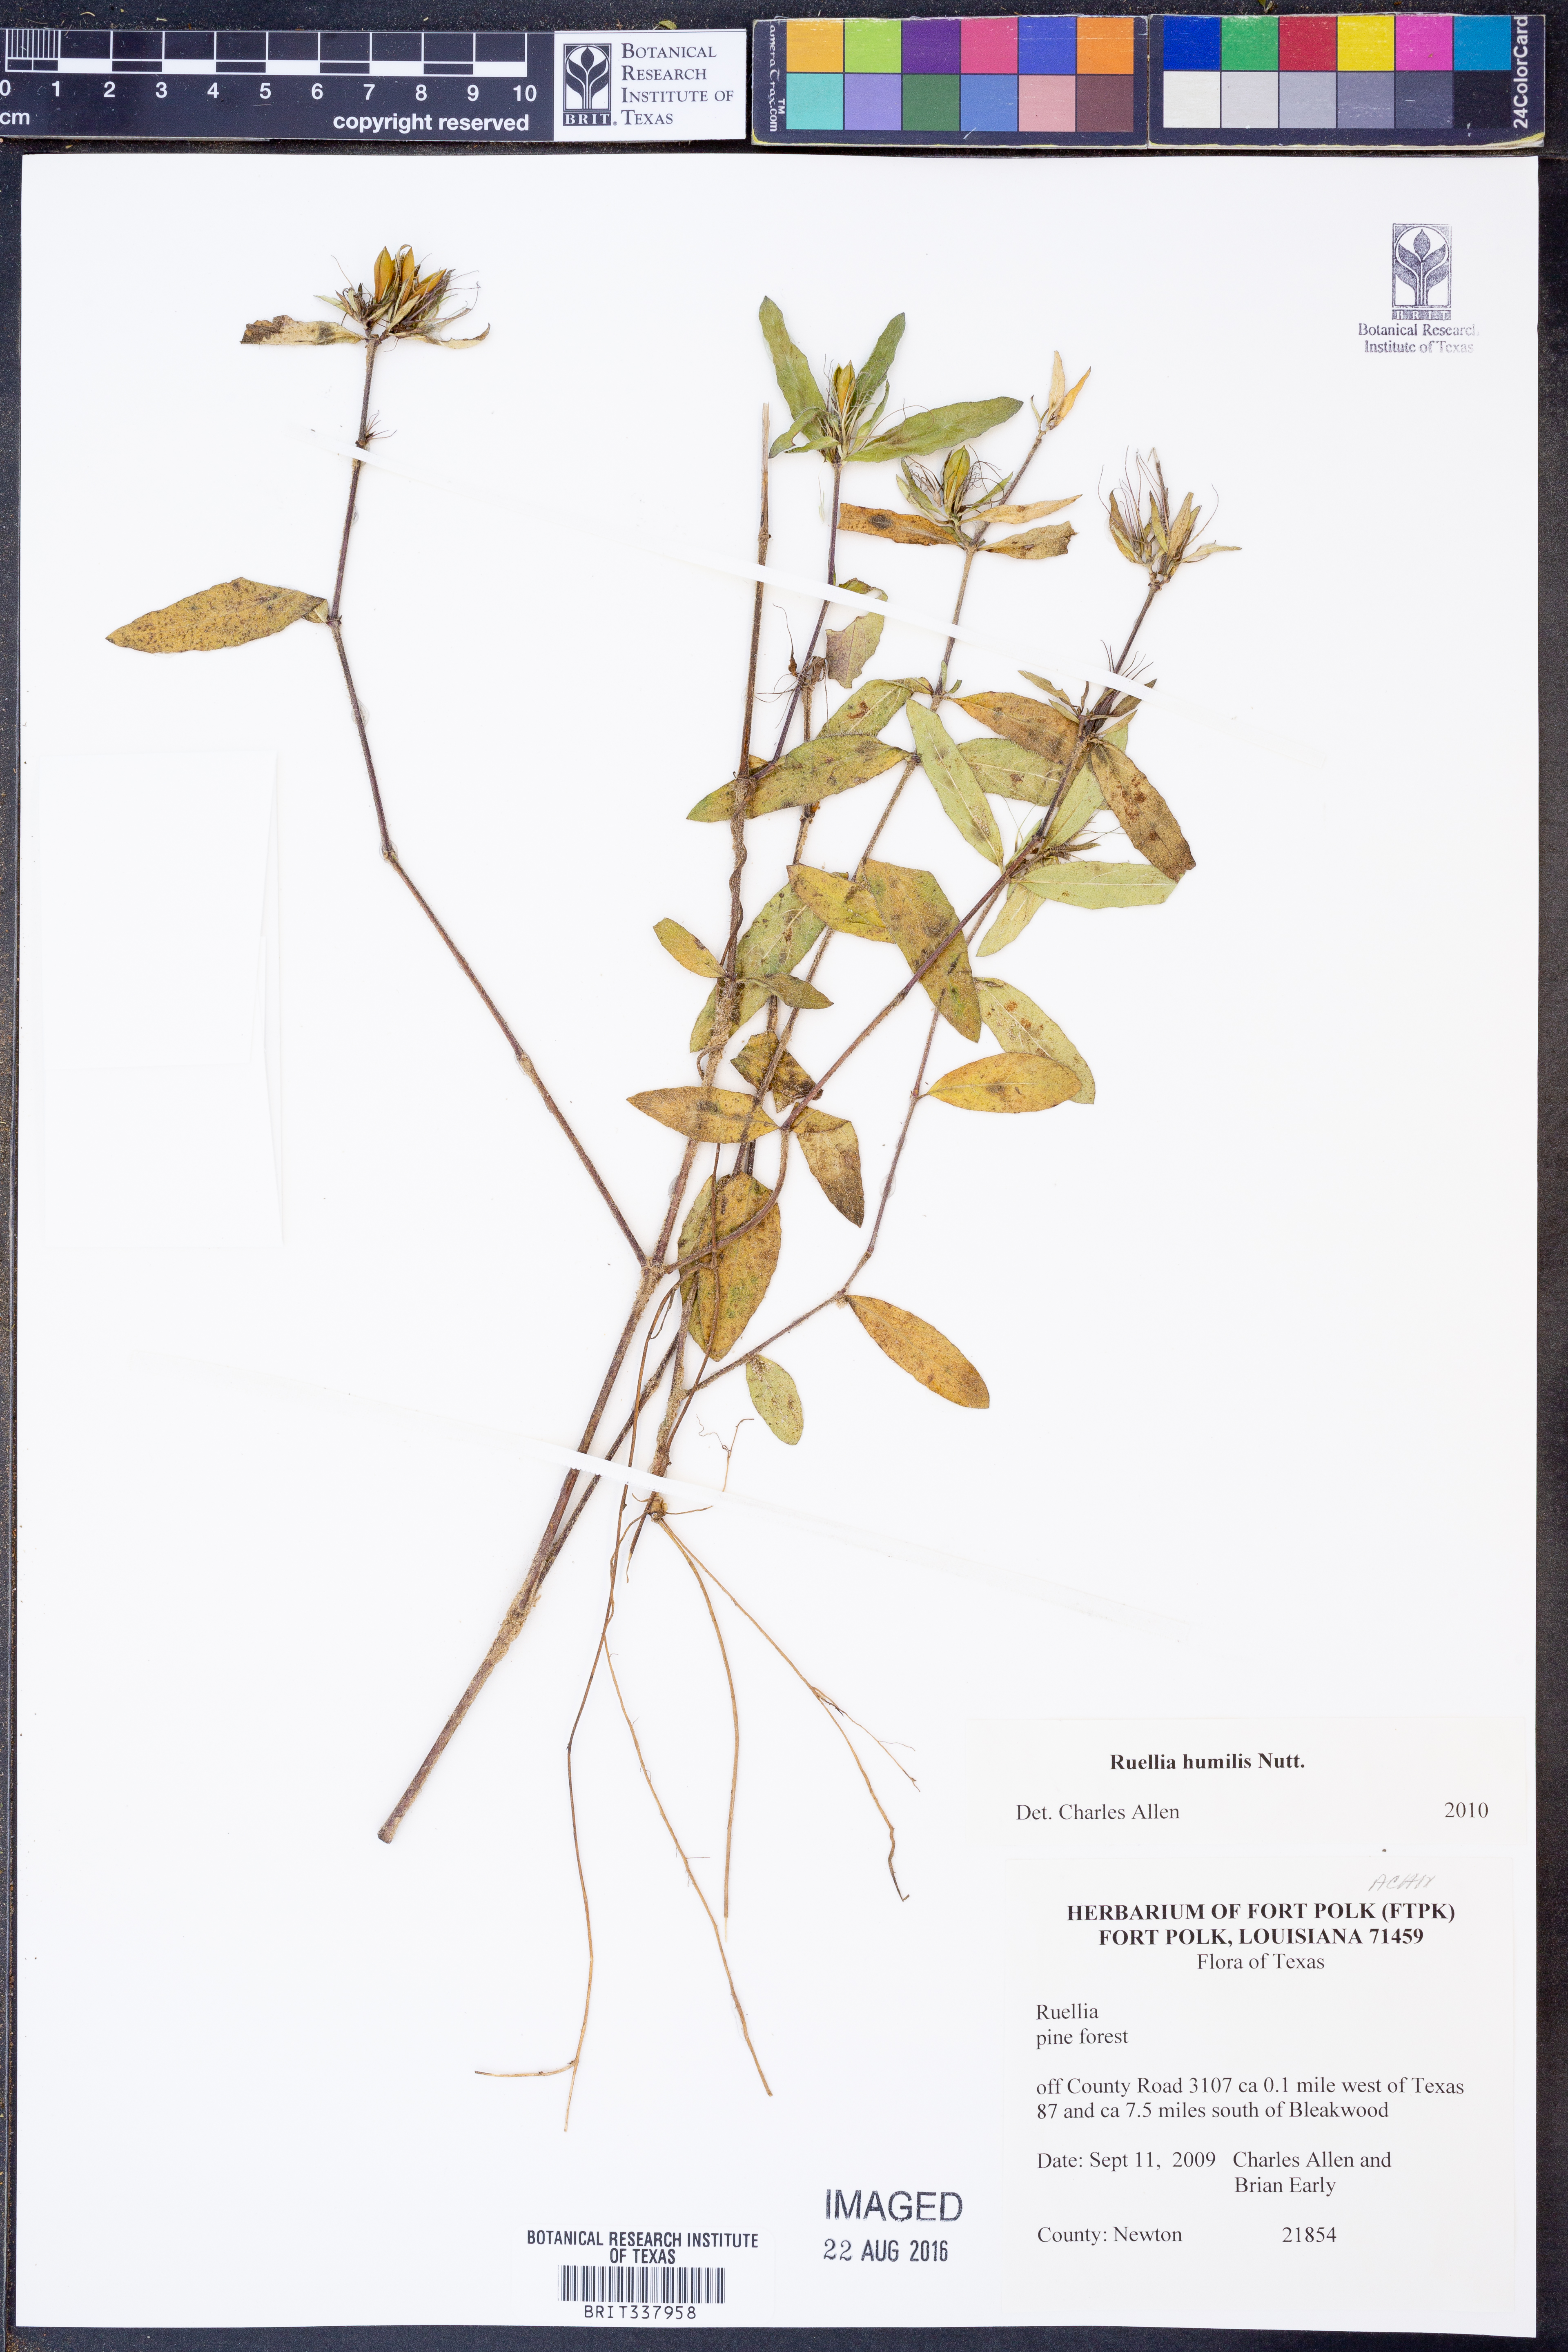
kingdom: Plantae
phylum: Tracheophyta
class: Magnoliopsida
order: Lamiales
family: Acanthaceae
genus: Ruellia
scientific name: Ruellia humilis
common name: Fringe-leaf ruellia
